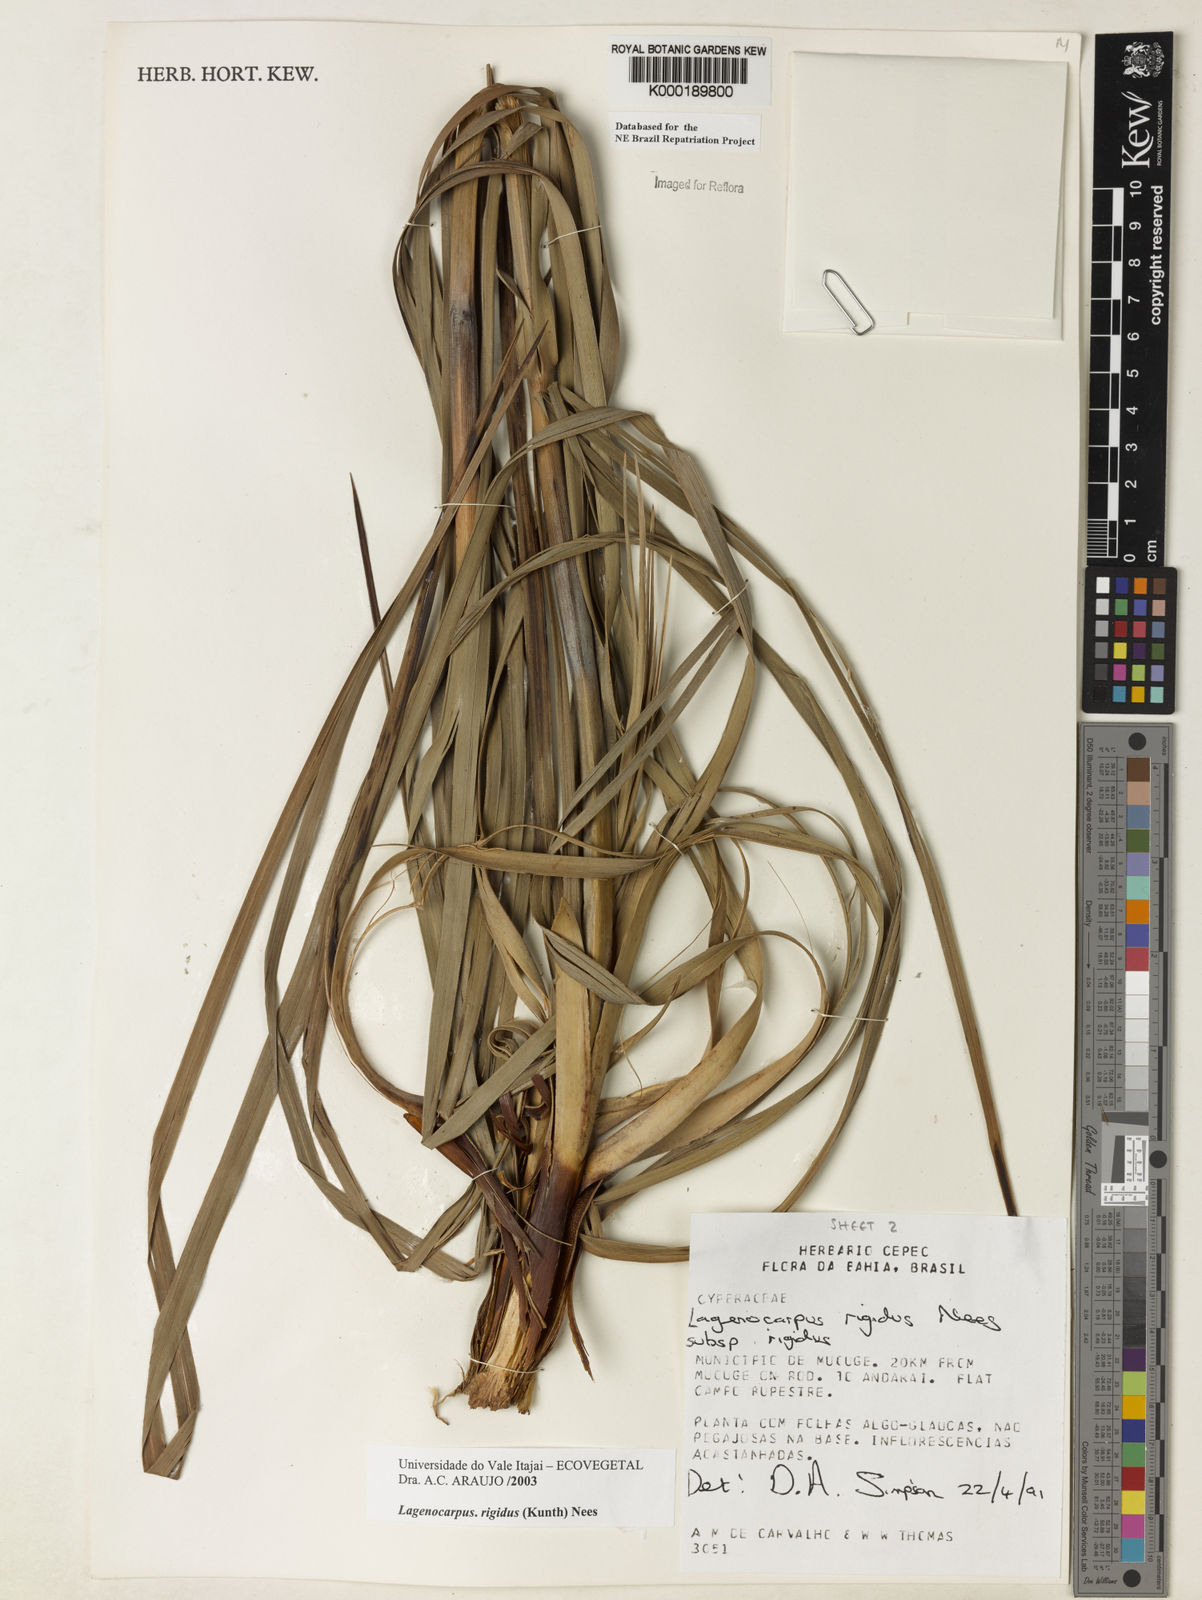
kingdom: Plantae
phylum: Tracheophyta
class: Liliopsida
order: Poales
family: Cyperaceae
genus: Lagenocarpus
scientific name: Lagenocarpus rigidus
